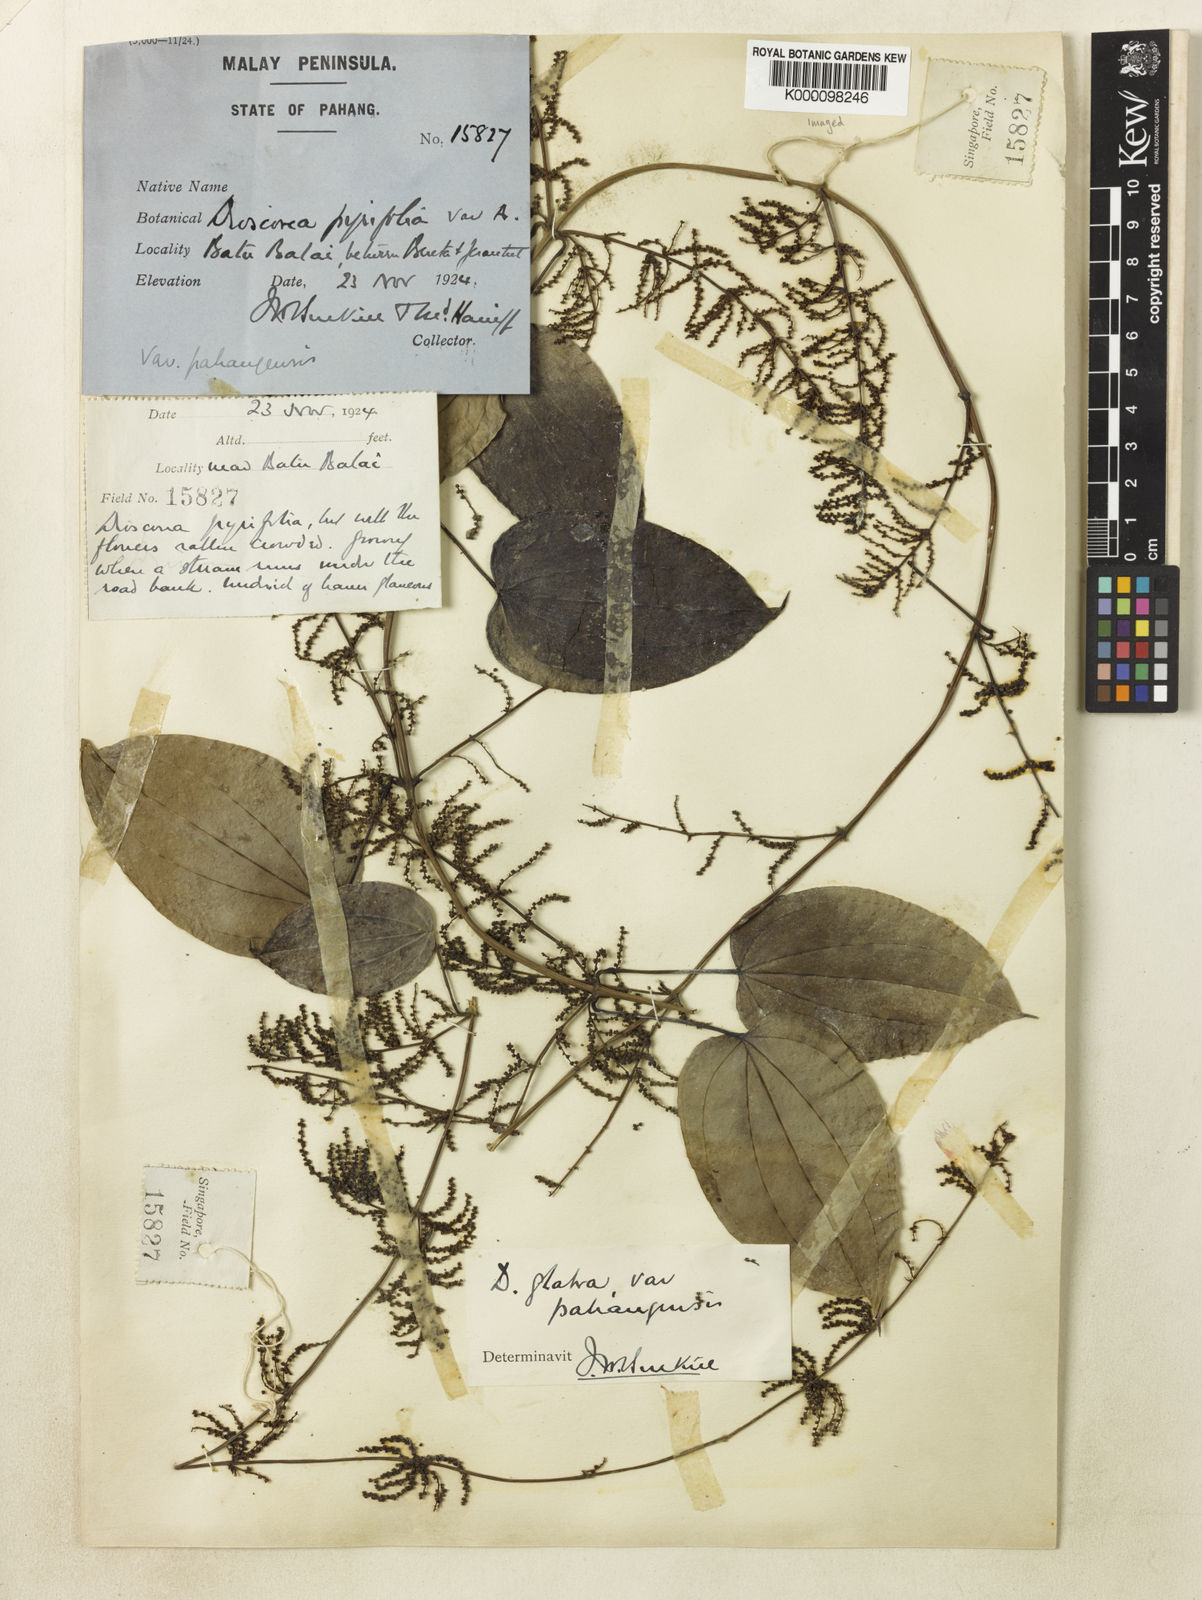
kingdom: Plantae
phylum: Tracheophyta
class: Liliopsida
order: Dioscoreales
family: Dioscoreaceae
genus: Dioscorea
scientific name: Dioscorea glabra
